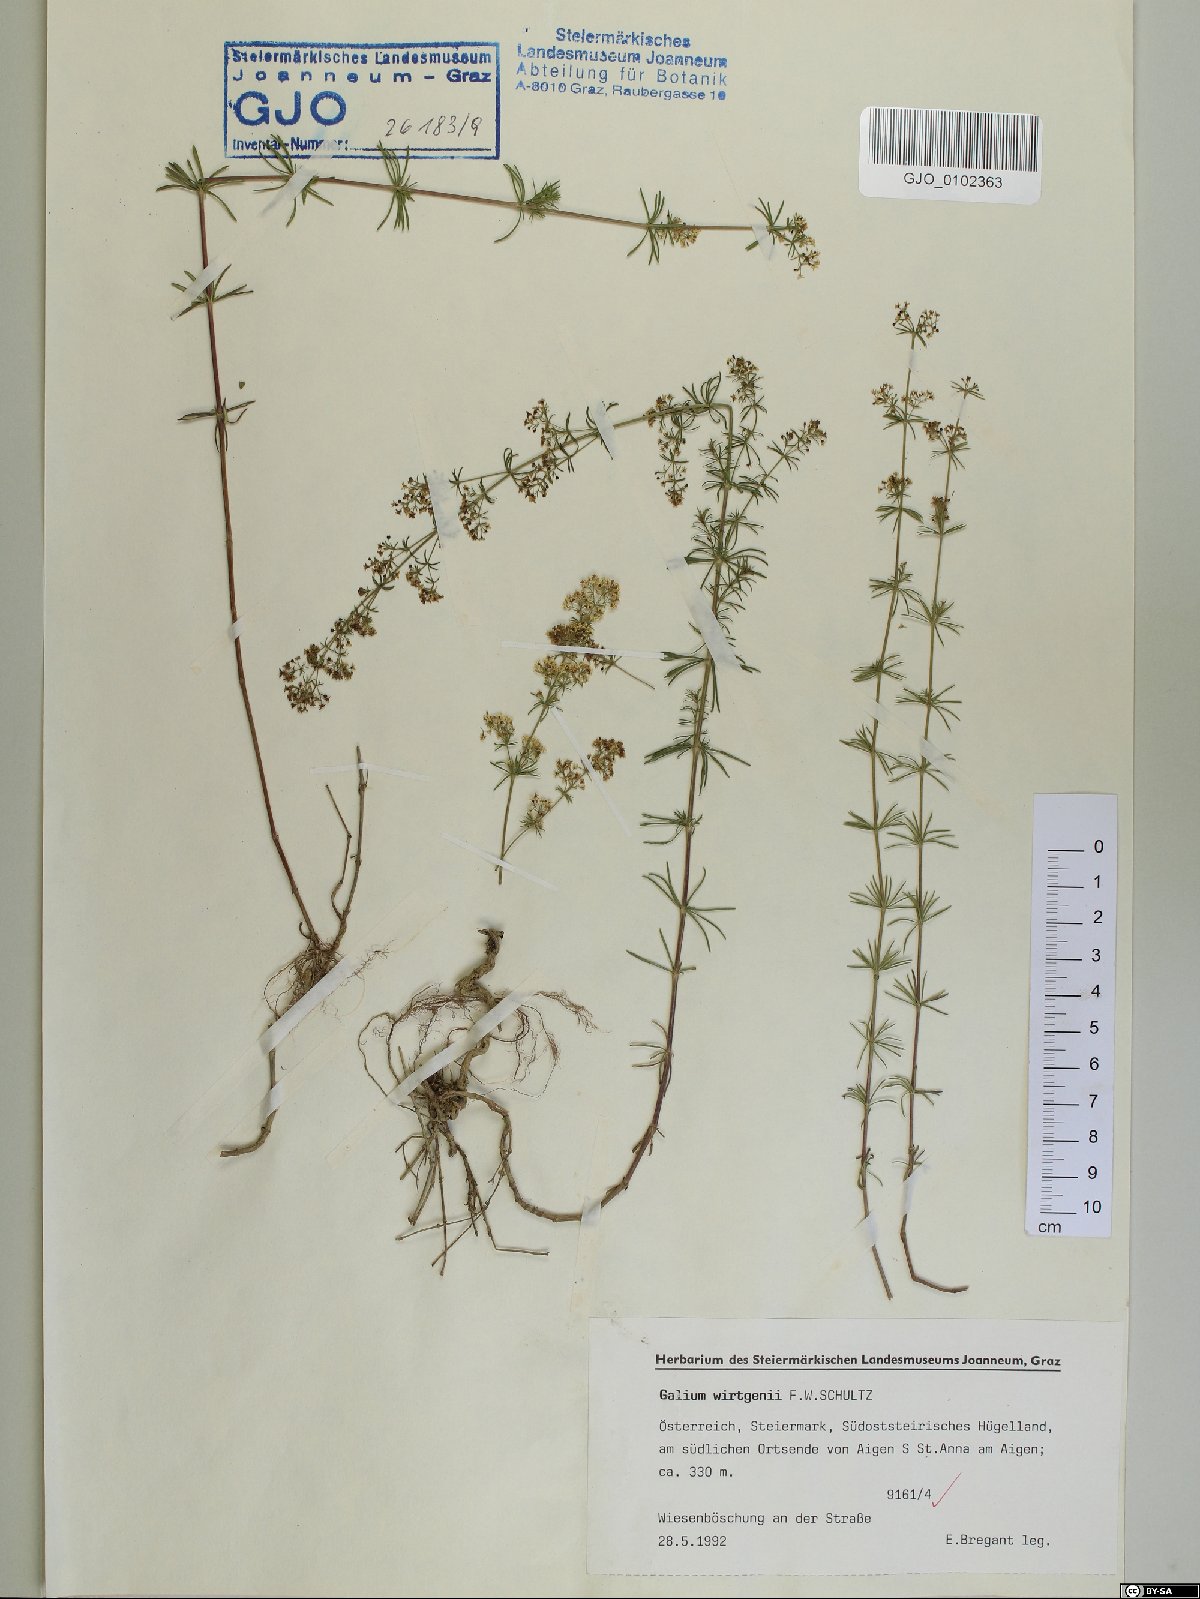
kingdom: Plantae
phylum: Tracheophyta
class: Magnoliopsida
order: Gentianales
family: Rubiaceae
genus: Galium
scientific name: Galium verum
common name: Lady's bedstraw
